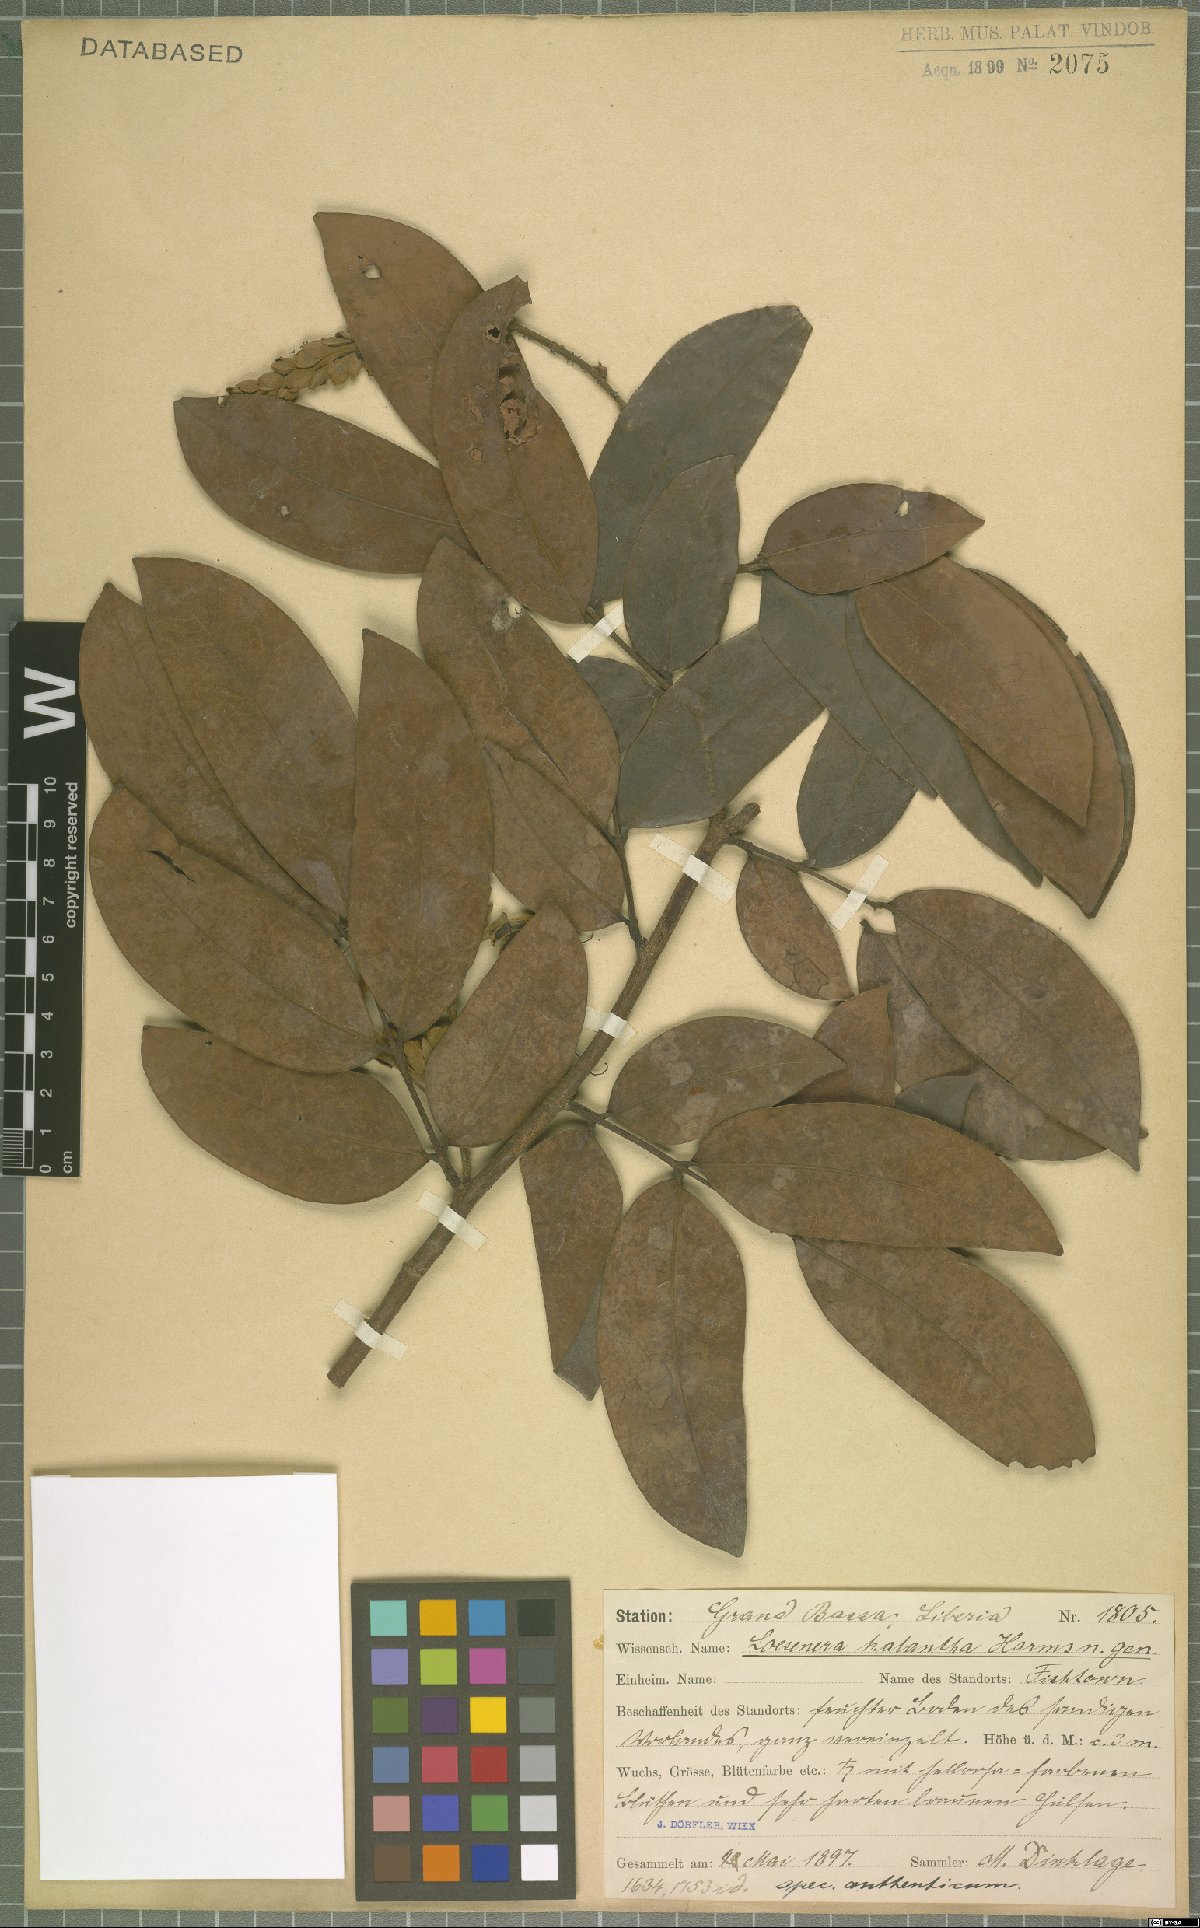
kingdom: Plantae
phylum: Tracheophyta
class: Magnoliopsida
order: Fabales
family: Fabaceae
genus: Loesenera
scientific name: Loesenera kalantha
